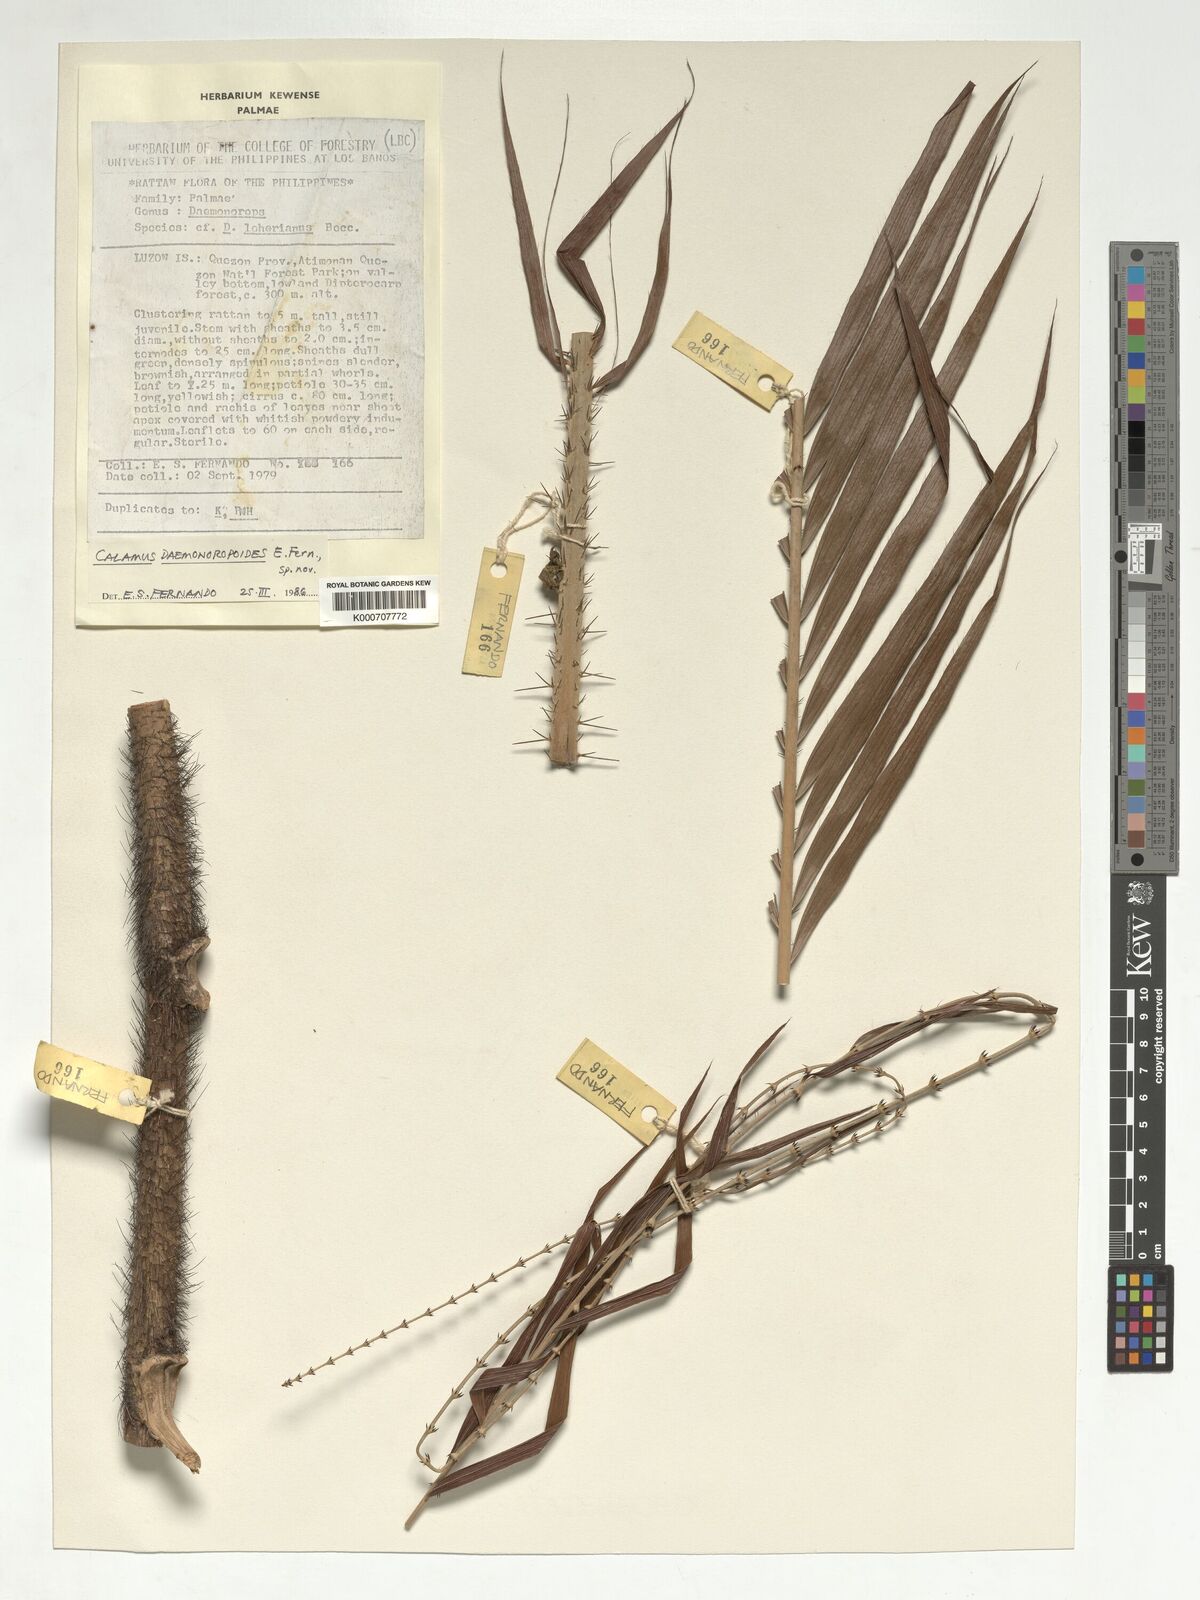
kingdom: Plantae
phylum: Tracheophyta
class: Liliopsida
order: Arecales
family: Arecaceae
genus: Calamus
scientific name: Calamus erinaceus
